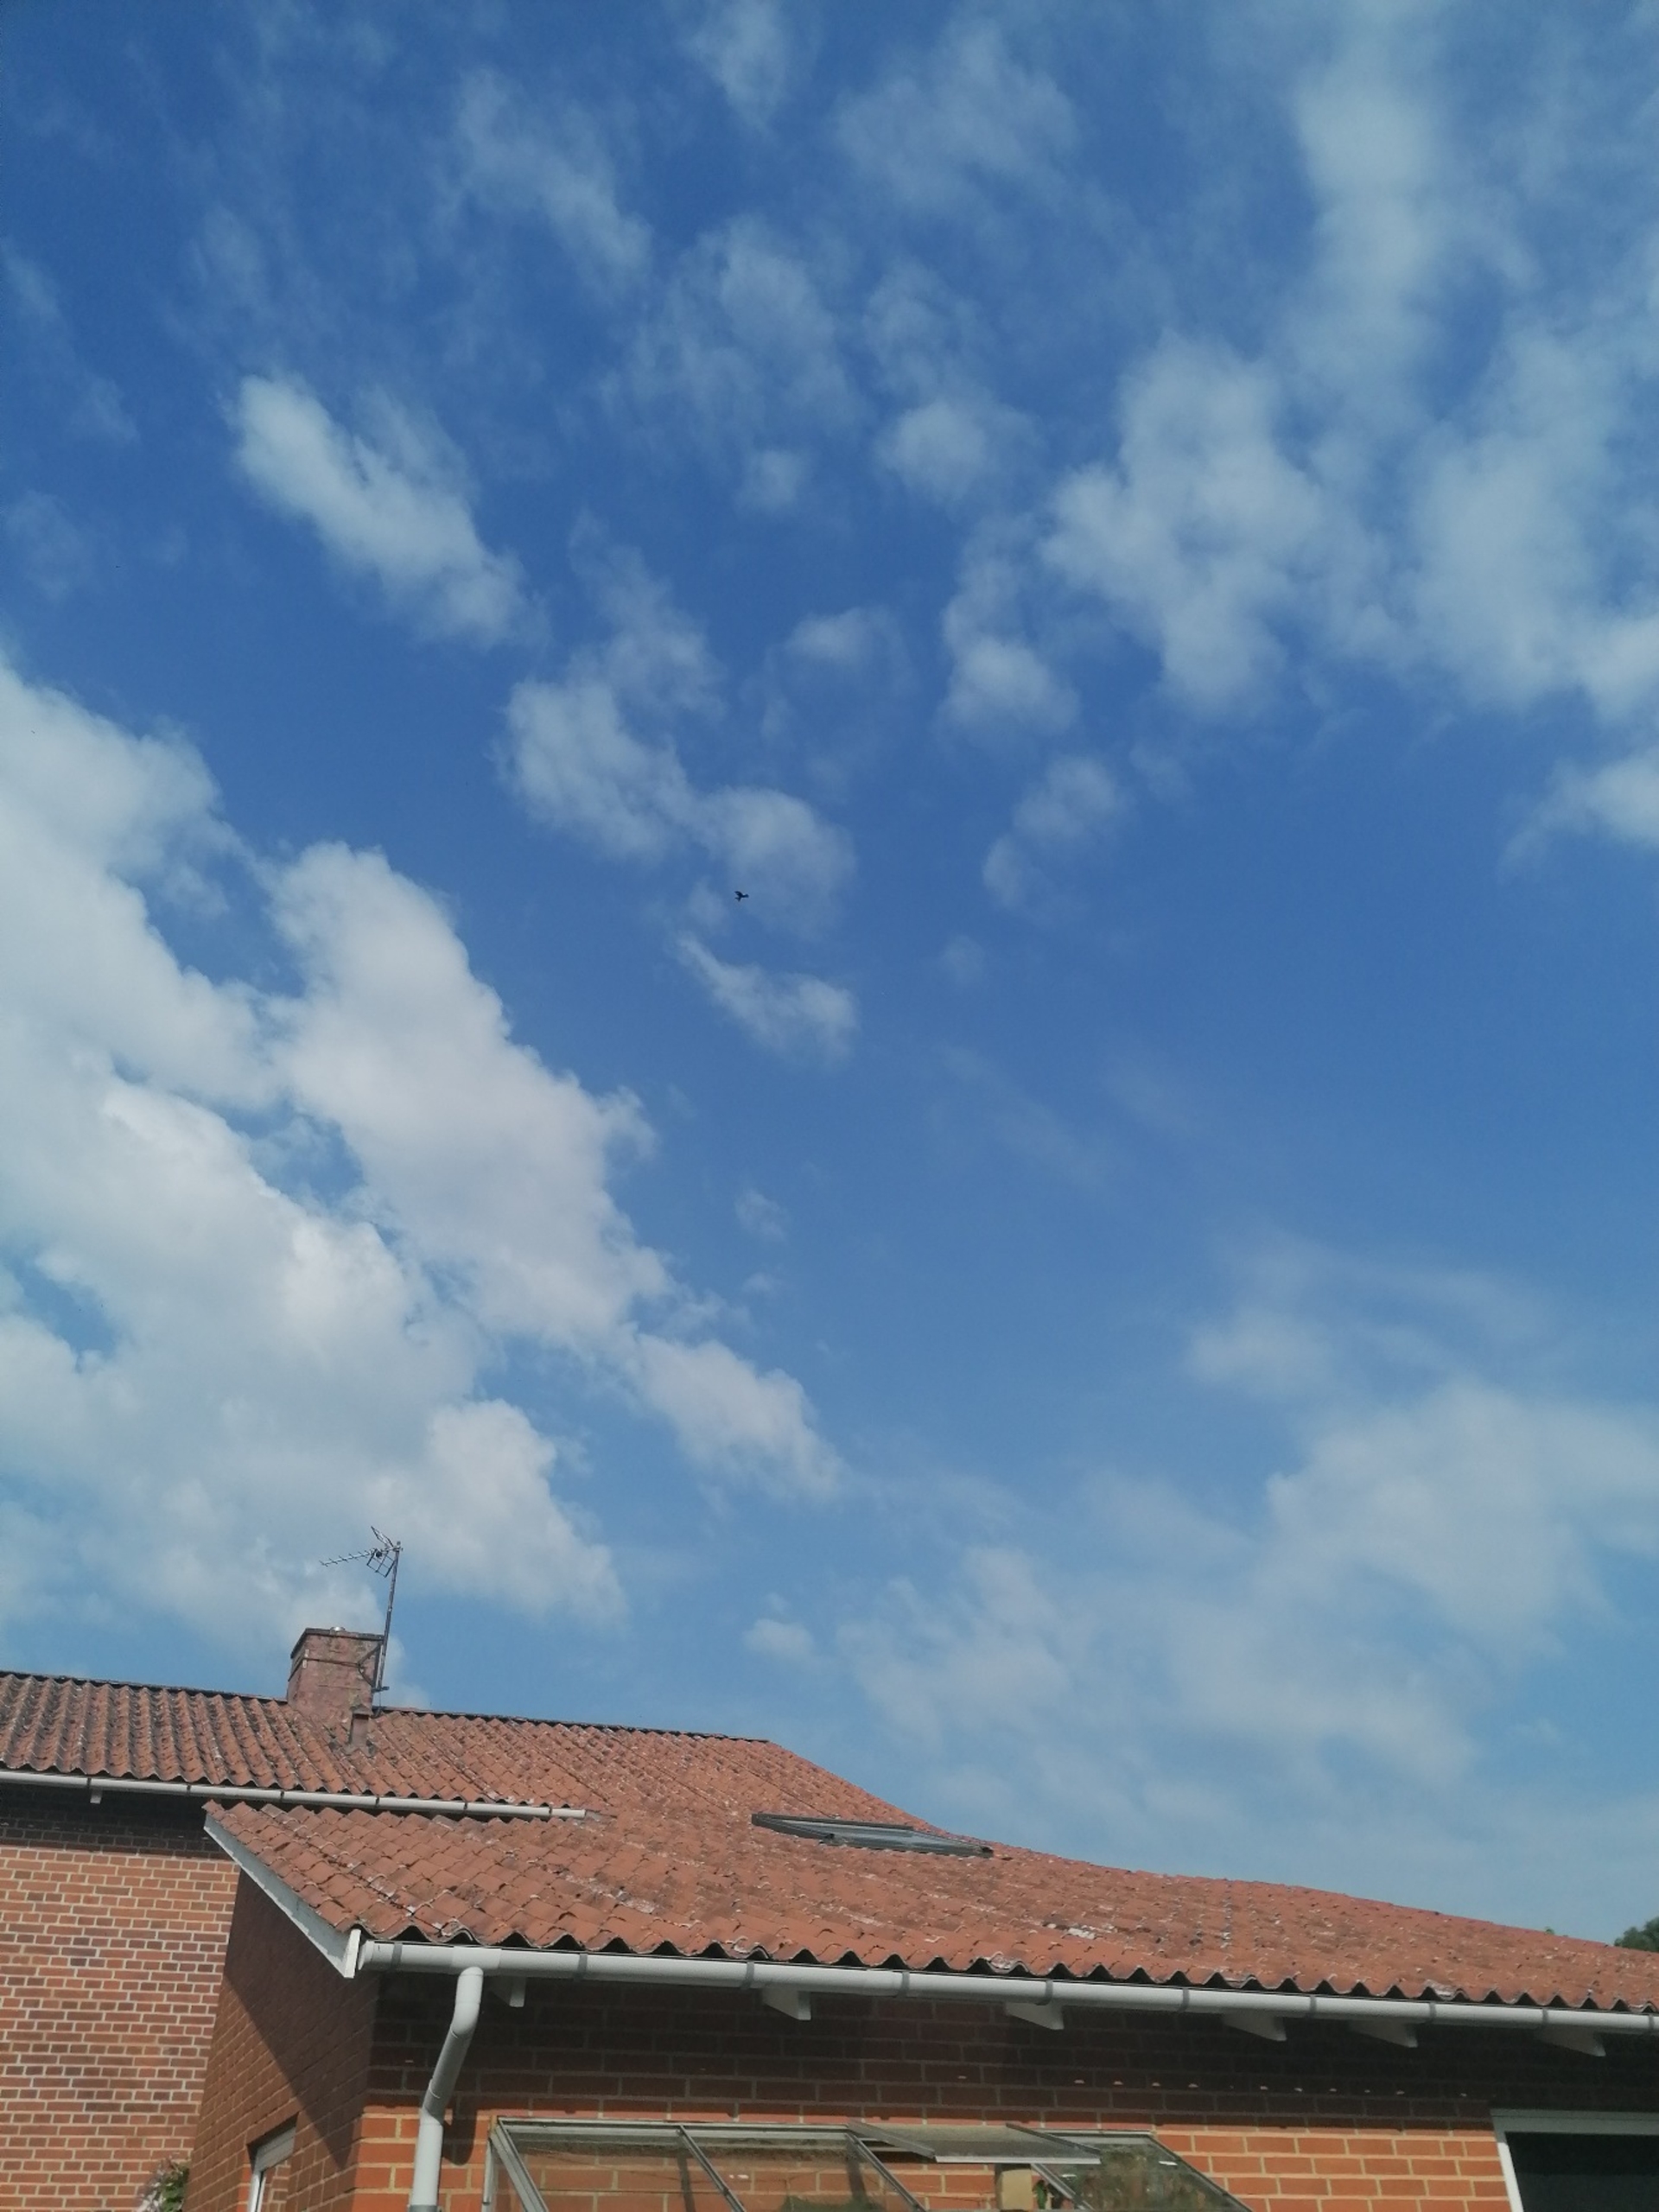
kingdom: Animalia
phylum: Chordata
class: Aves
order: Accipitriformes
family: Accipitridae
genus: Milvus
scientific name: Milvus milvus
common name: Rød glente
